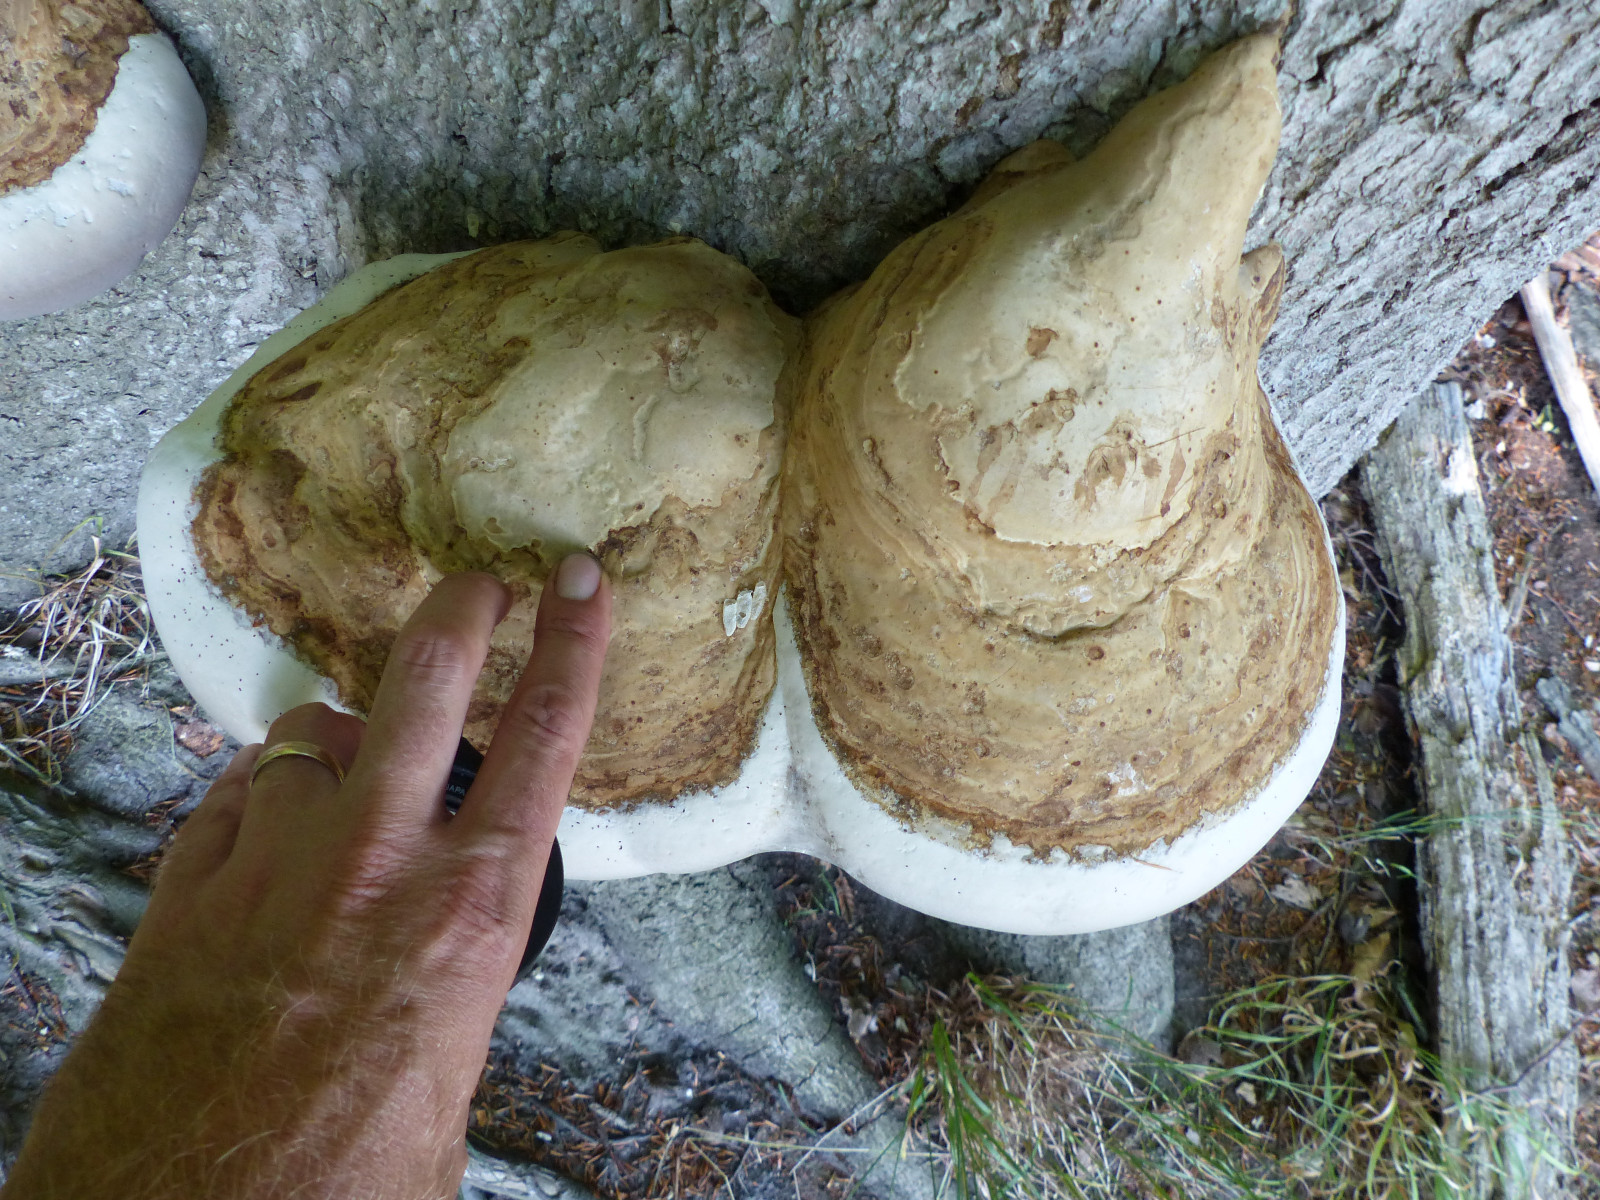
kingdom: Fungi
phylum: Basidiomycota
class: Agaricomycetes
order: Polyporales
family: Polyporaceae
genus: Fomes
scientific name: Fomes fomentarius
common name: tøndersvamp
